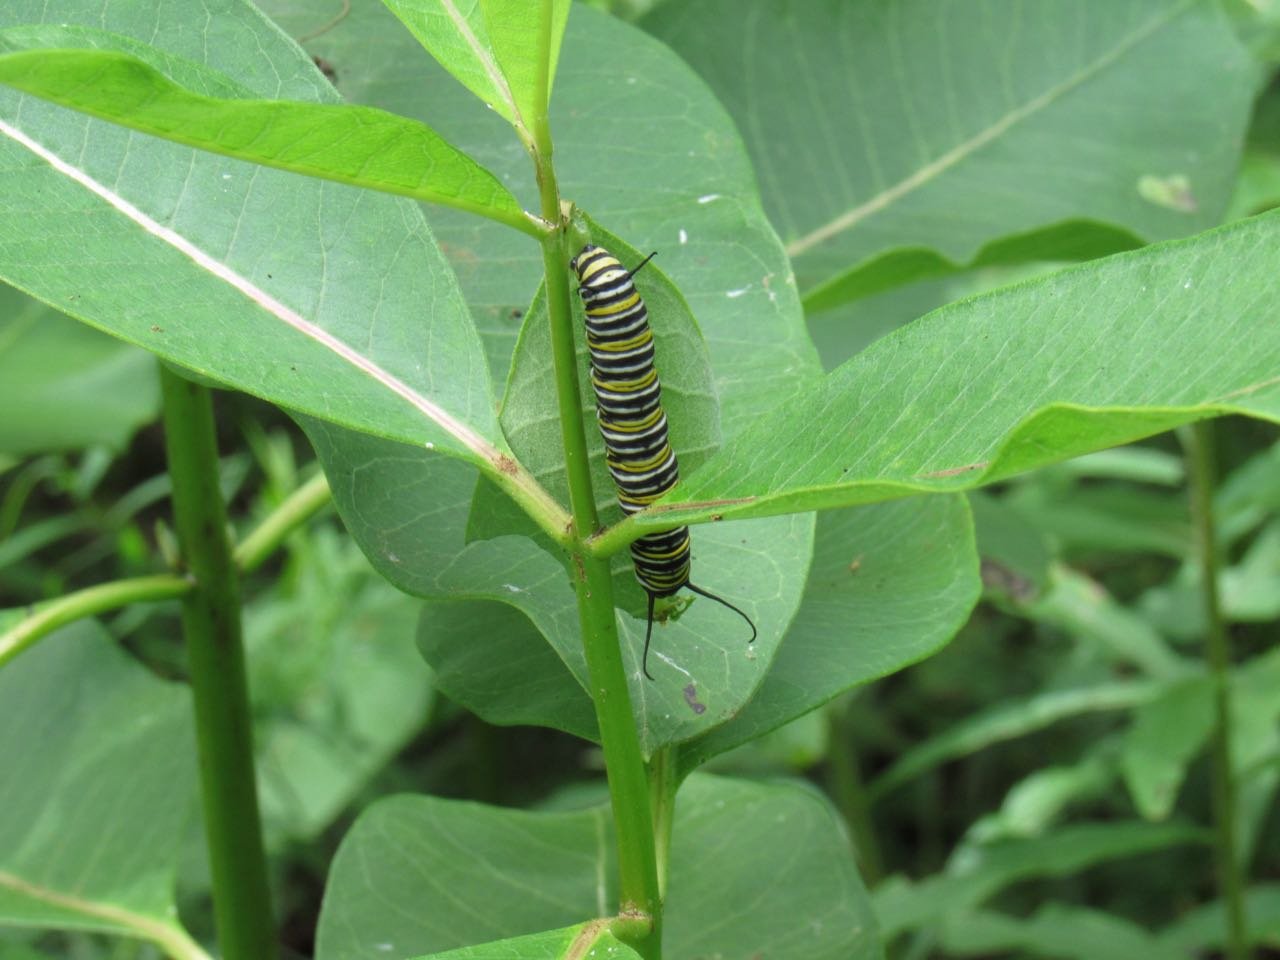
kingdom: Animalia
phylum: Arthropoda
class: Insecta
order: Lepidoptera
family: Nymphalidae
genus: Danaus
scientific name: Danaus plexippus
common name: Monarch
